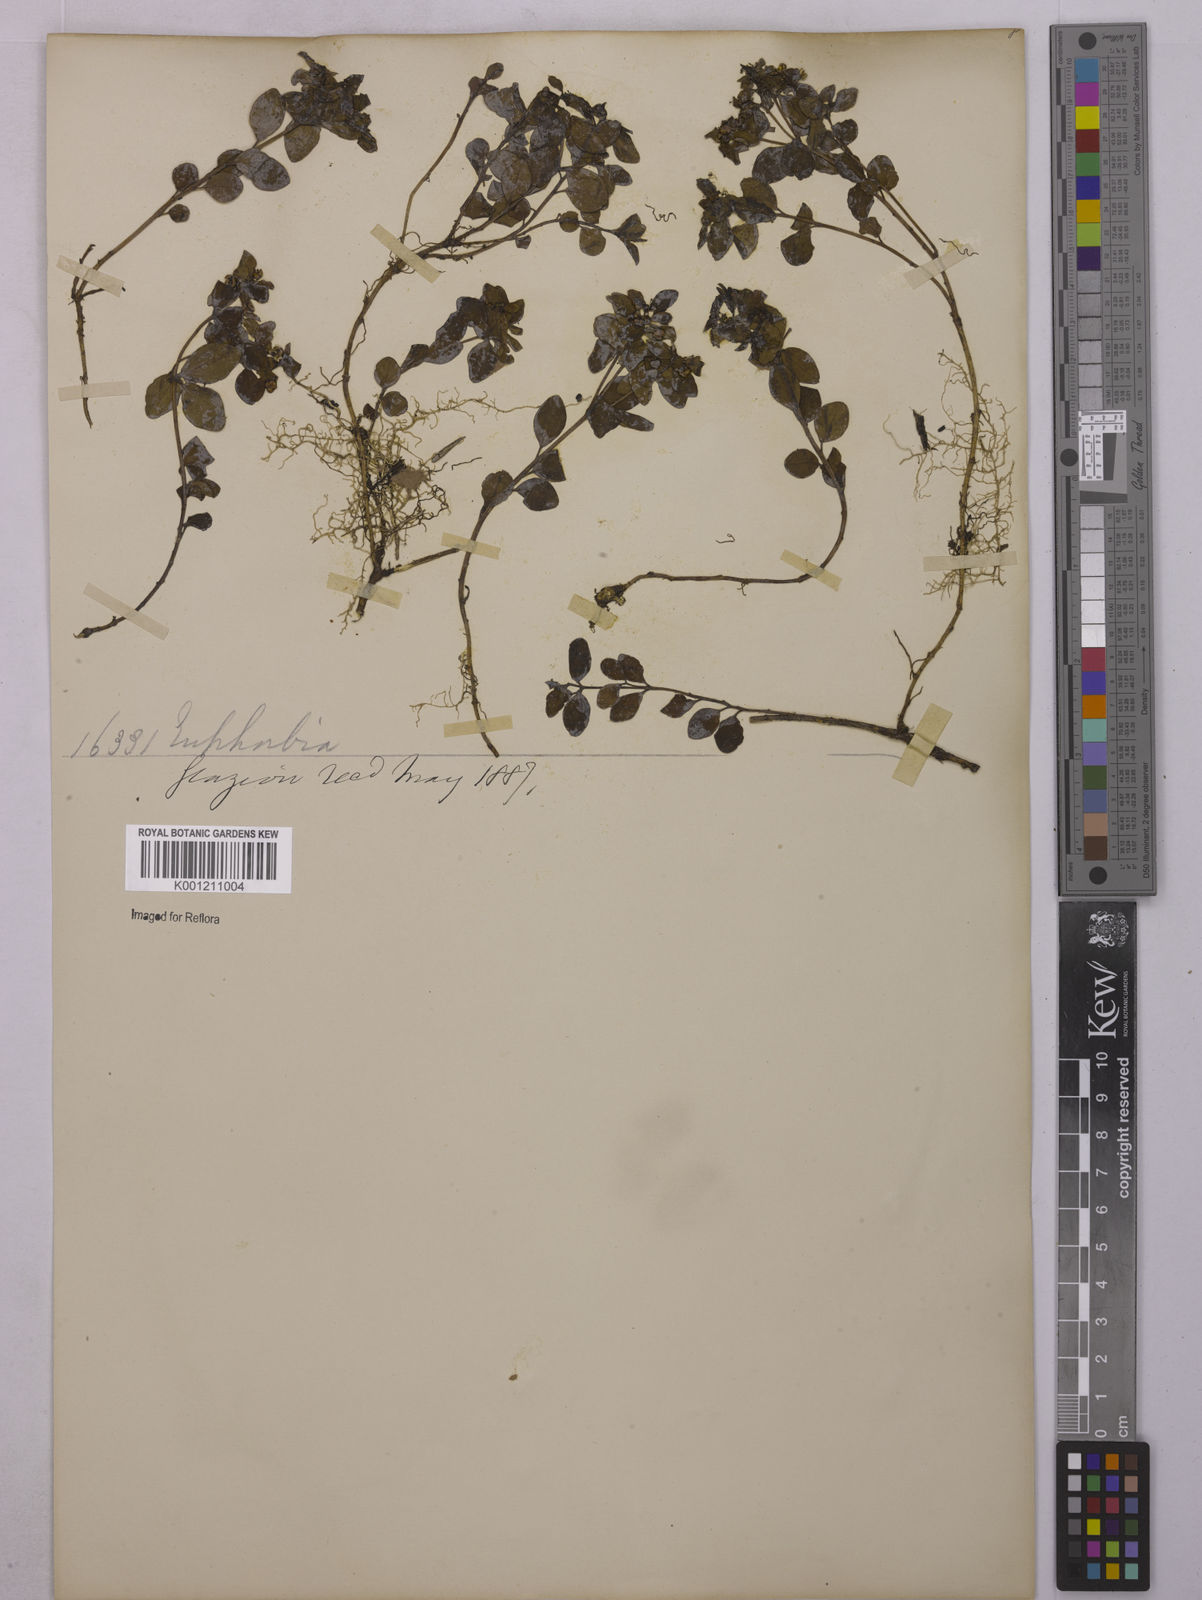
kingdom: Plantae
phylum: Tracheophyta
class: Magnoliopsida
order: Malpighiales
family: Euphorbiaceae
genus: Euphorbia
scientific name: Euphorbia
